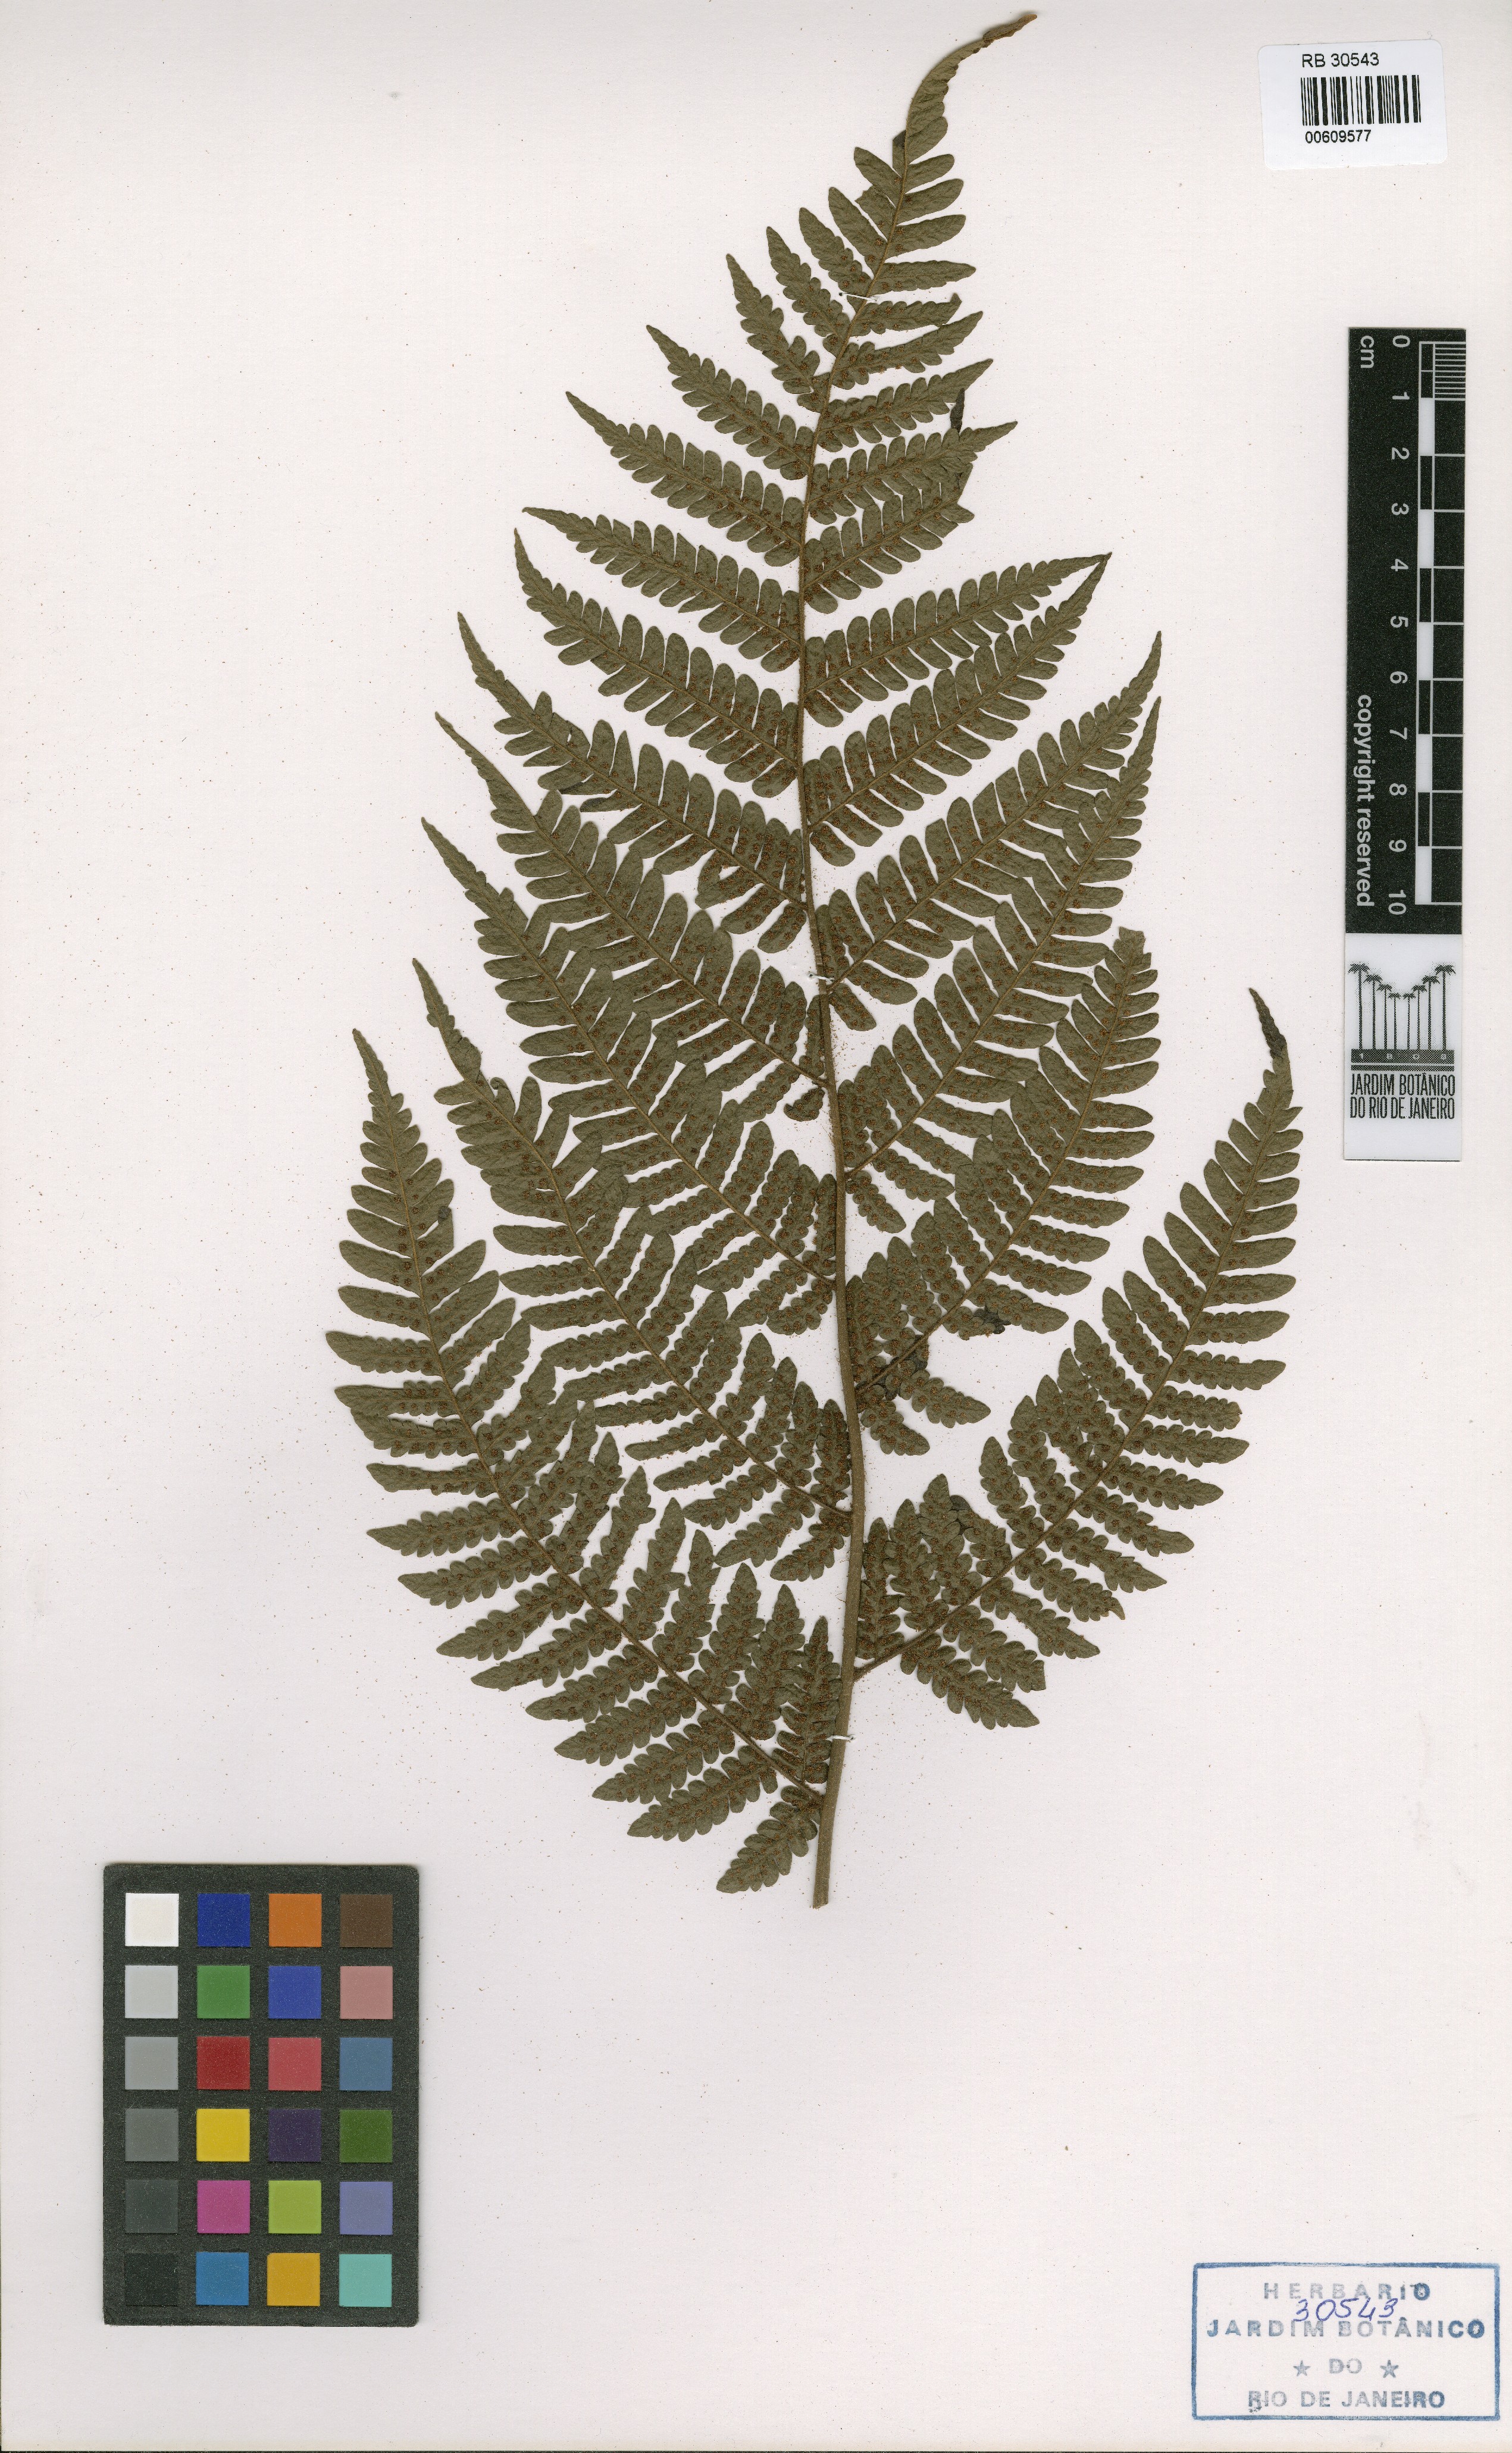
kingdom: Plantae
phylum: Tracheophyta
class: Polypodiopsida
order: Polypodiales
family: Dryopteridaceae
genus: Megalastrum
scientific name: Megalastrum inaequale
